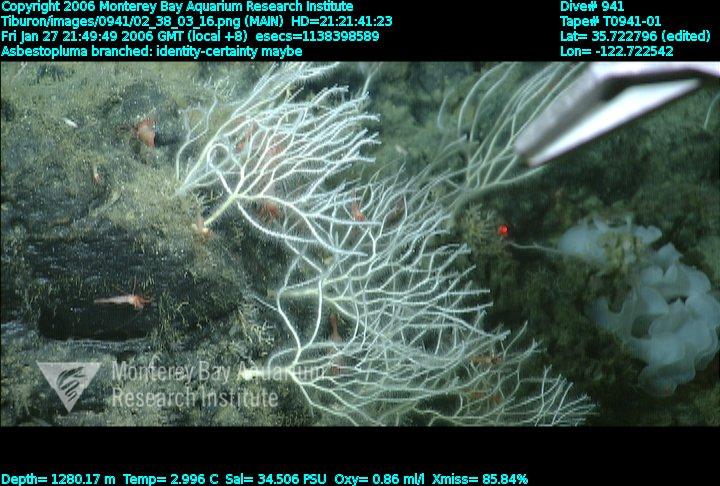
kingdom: Animalia
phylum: Porifera
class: Demospongiae
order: Poecilosclerida
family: Cladorhizidae
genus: Asbestopluma
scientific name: Asbestopluma monticola
